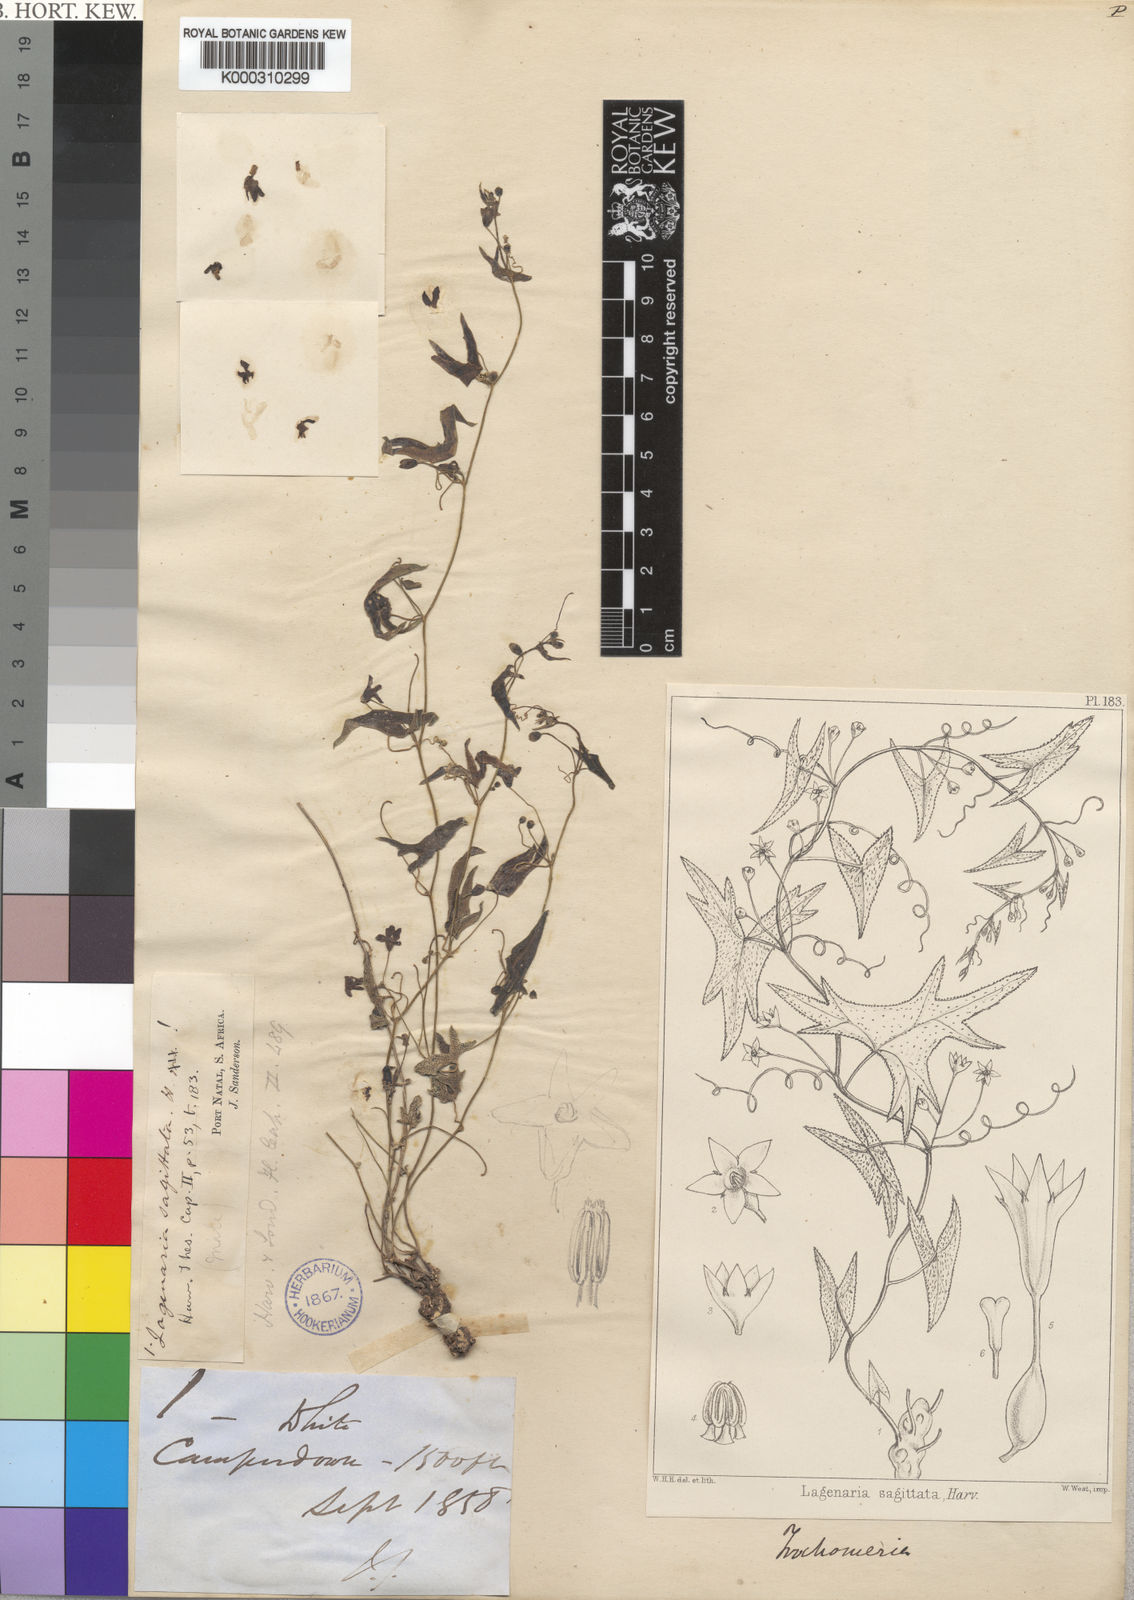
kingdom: Plantae
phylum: Tracheophyta
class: Magnoliopsida
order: Cucurbitales
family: Cucurbitaceae
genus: Trochomeria
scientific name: Trochomeria
